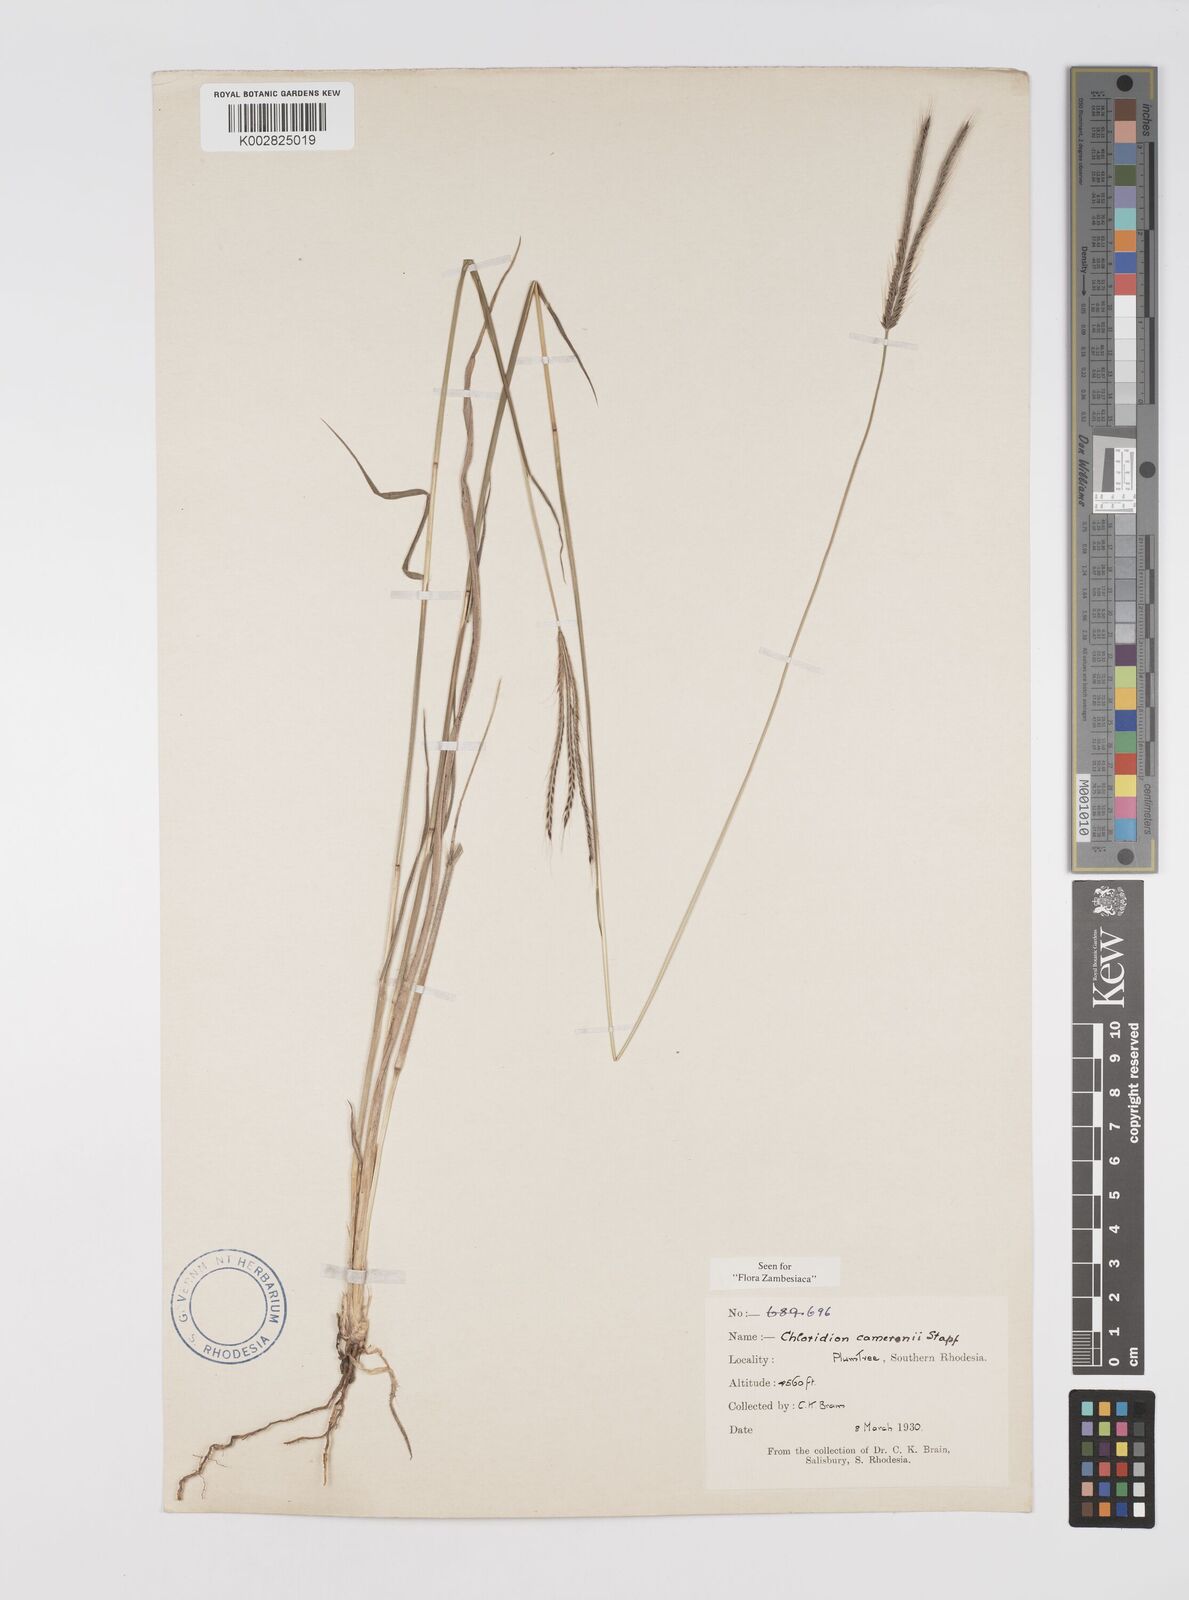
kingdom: Plantae
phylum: Tracheophyta
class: Liliopsida
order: Poales
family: Poaceae
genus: Stereochlaena
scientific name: Stereochlaena cameronii
